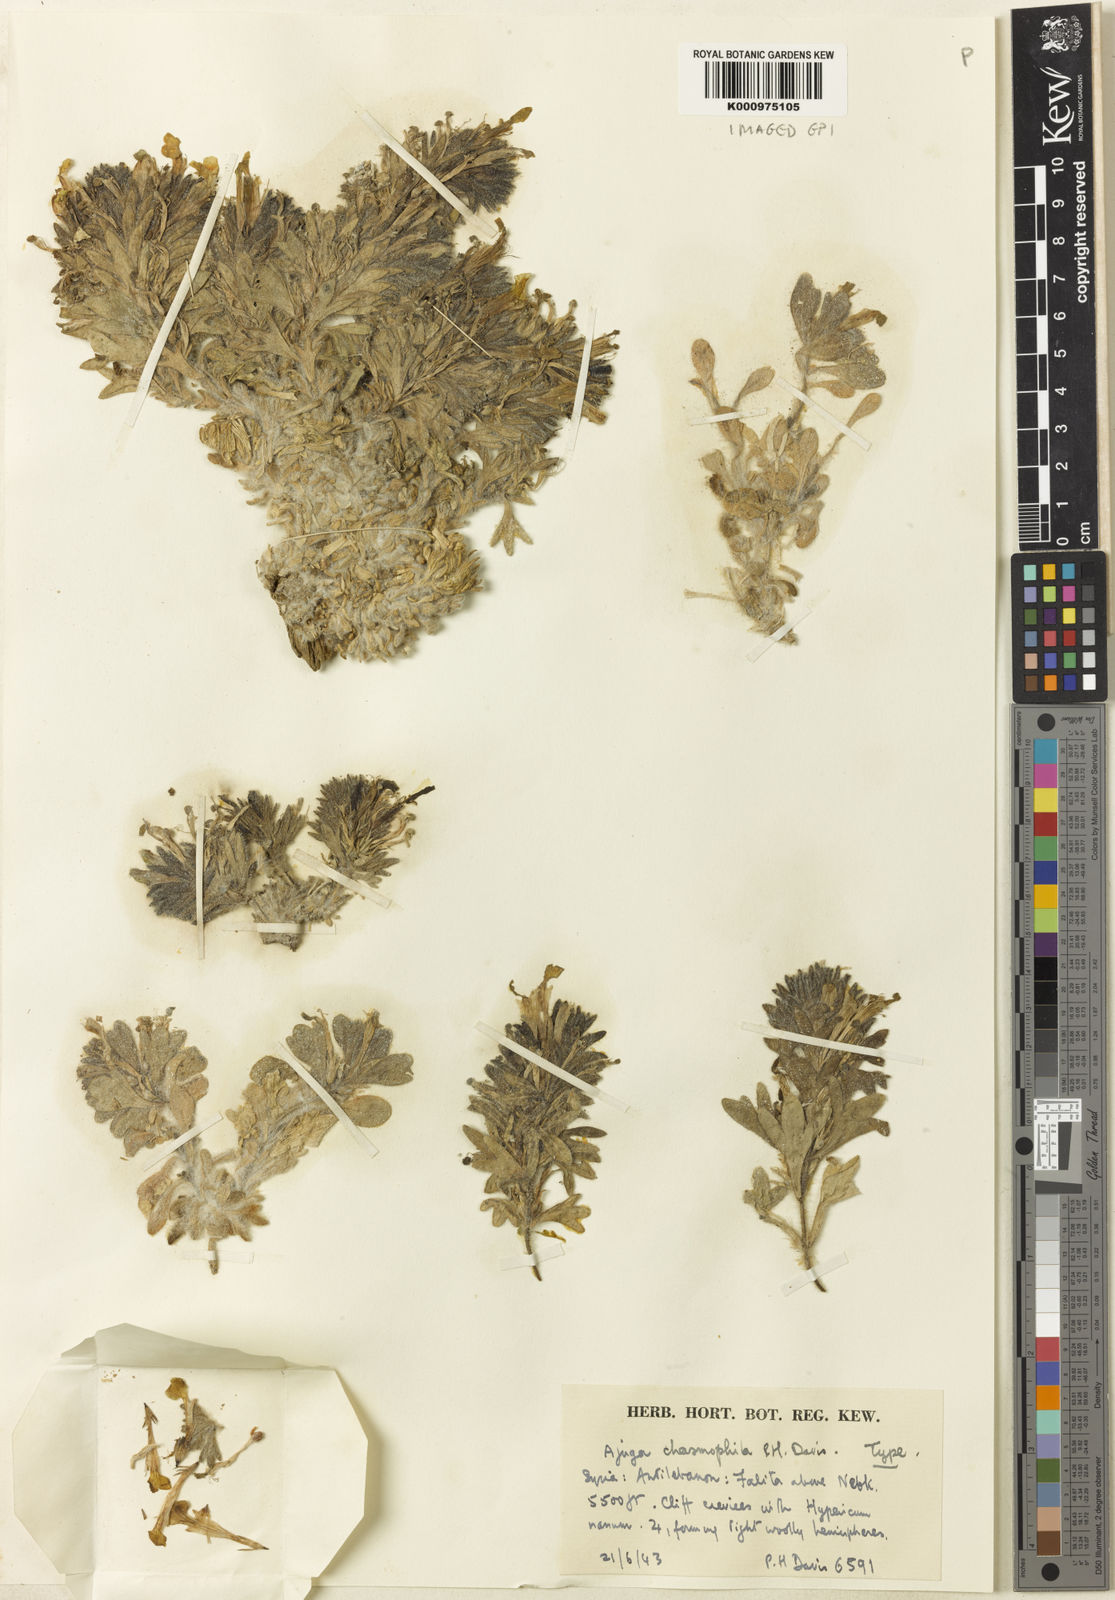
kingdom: Plantae
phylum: Tracheophyta
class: Magnoliopsida
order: Lamiales
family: Lamiaceae
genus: Ajuga
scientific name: Ajuga chasmophila
